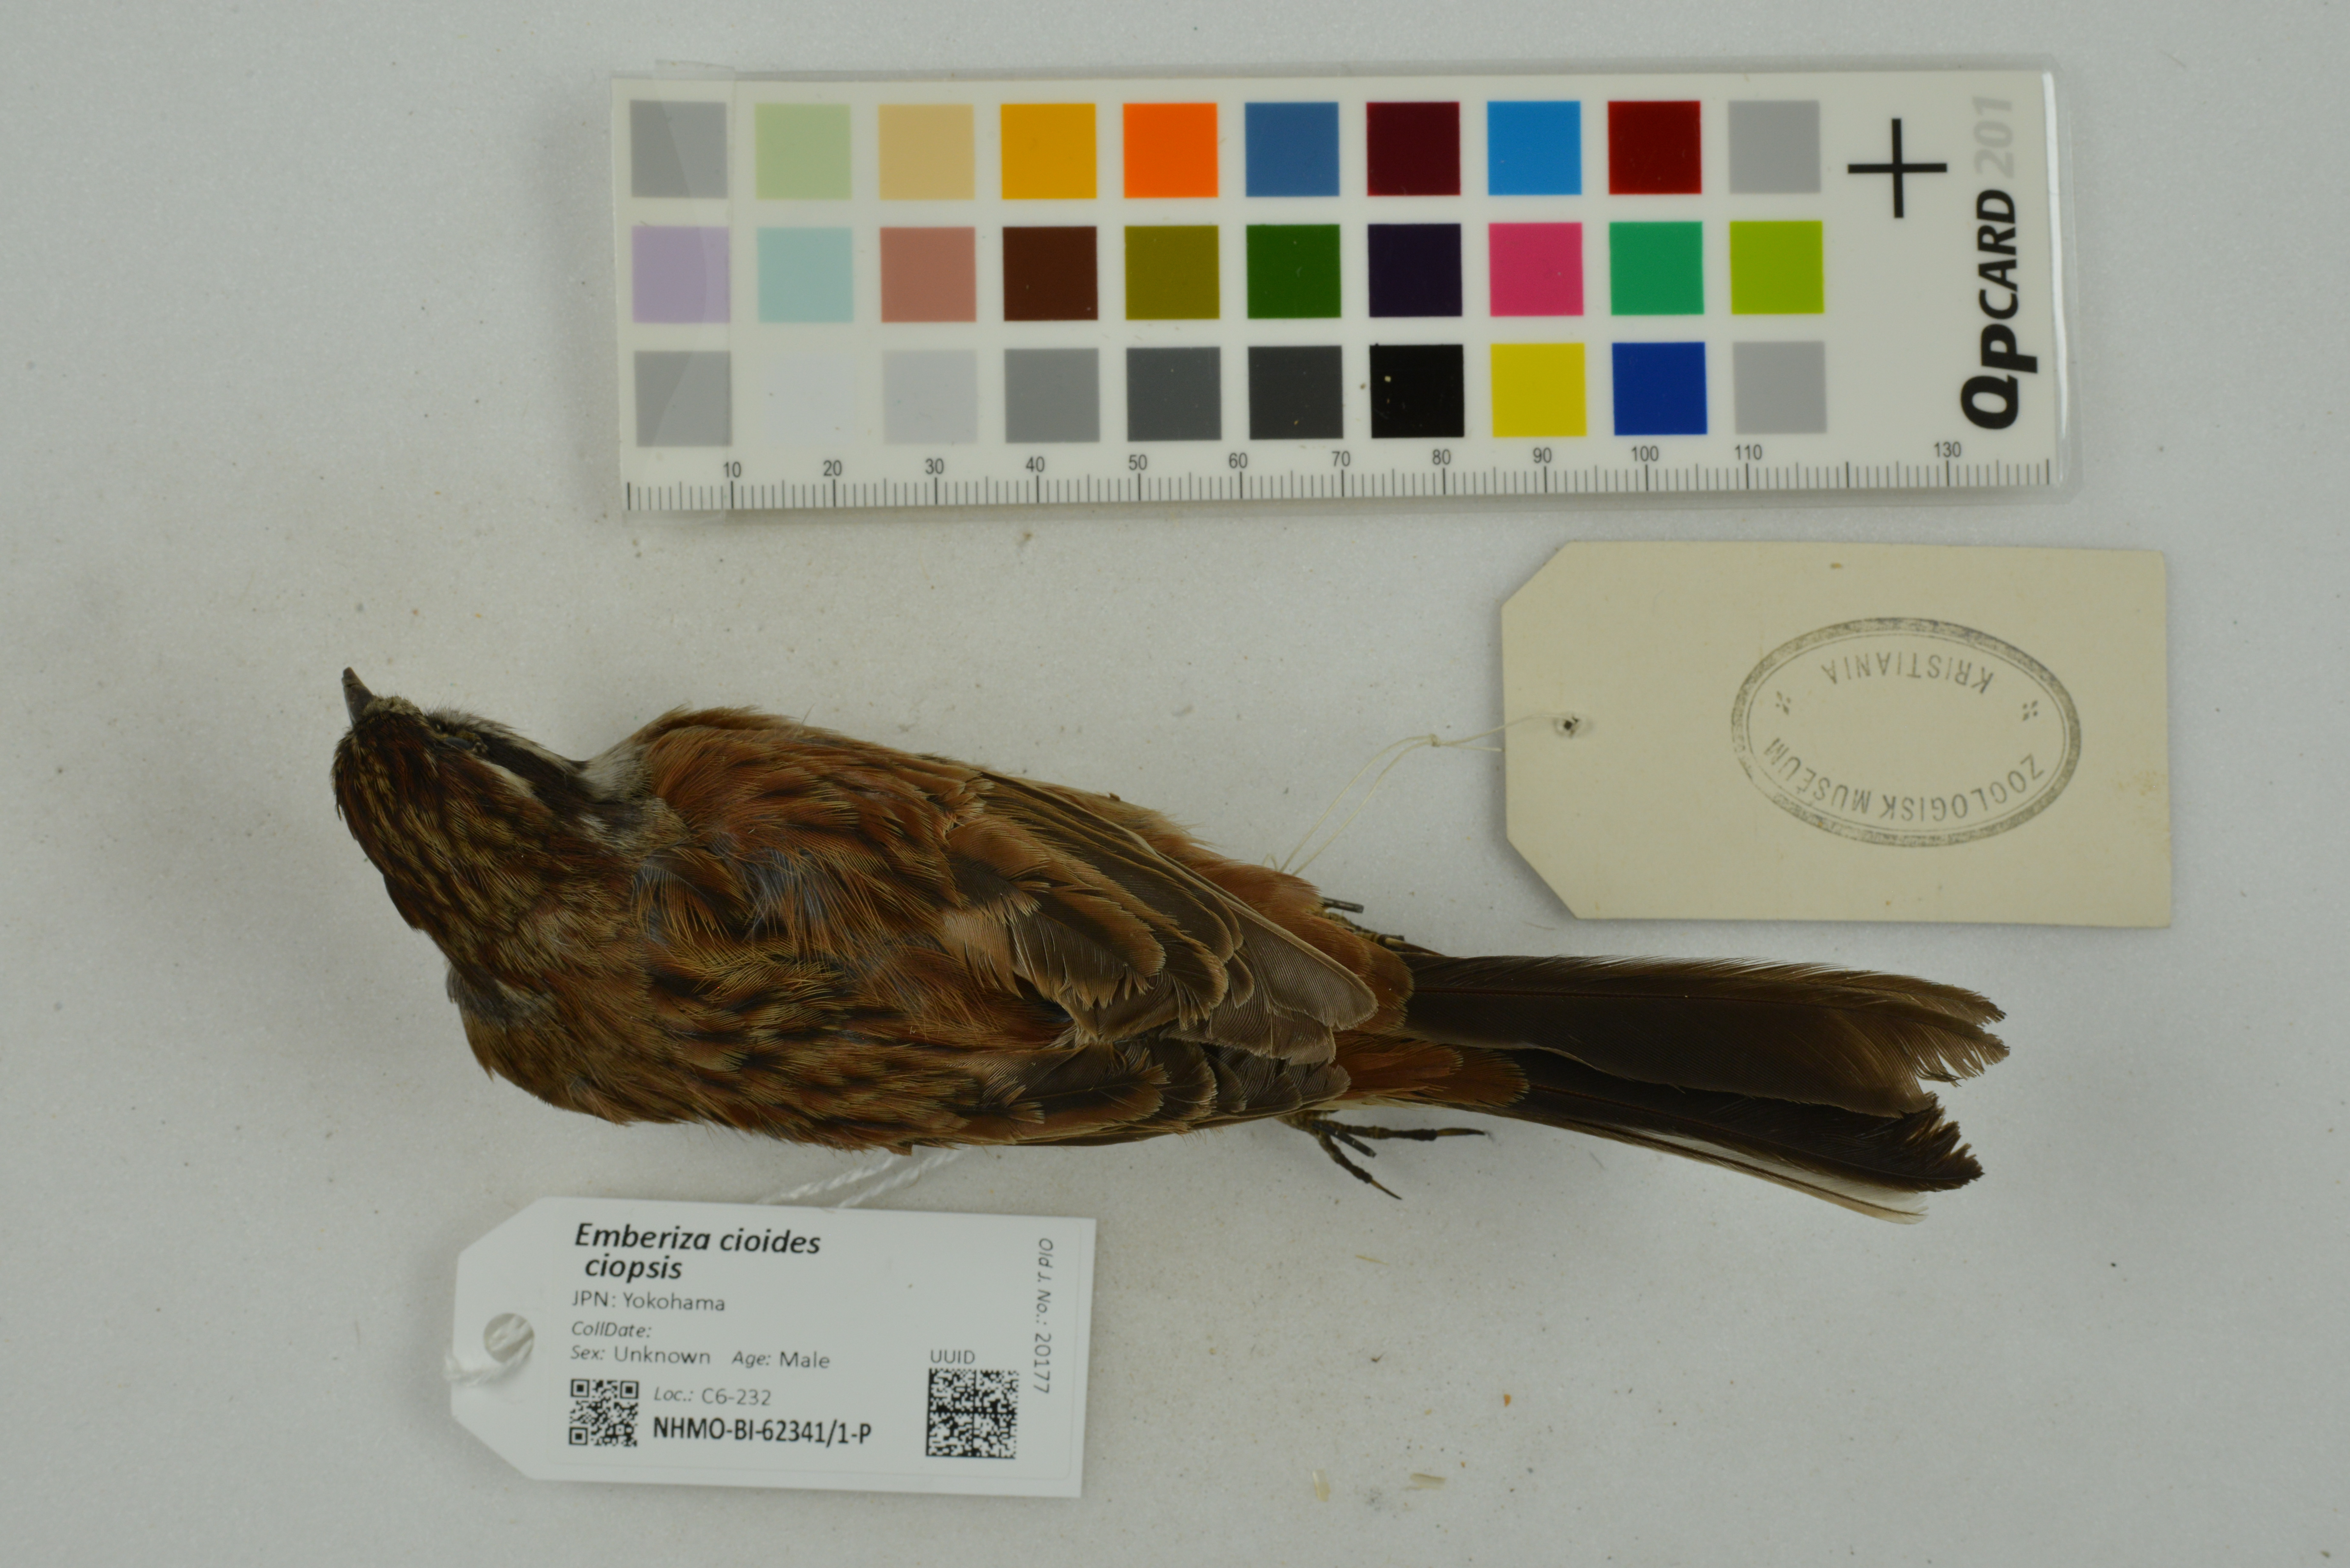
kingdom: Animalia
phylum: Chordata
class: Aves
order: Passeriformes
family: Emberizidae
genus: Emberiza
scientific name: Emberiza cioides
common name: Meadow bunting
